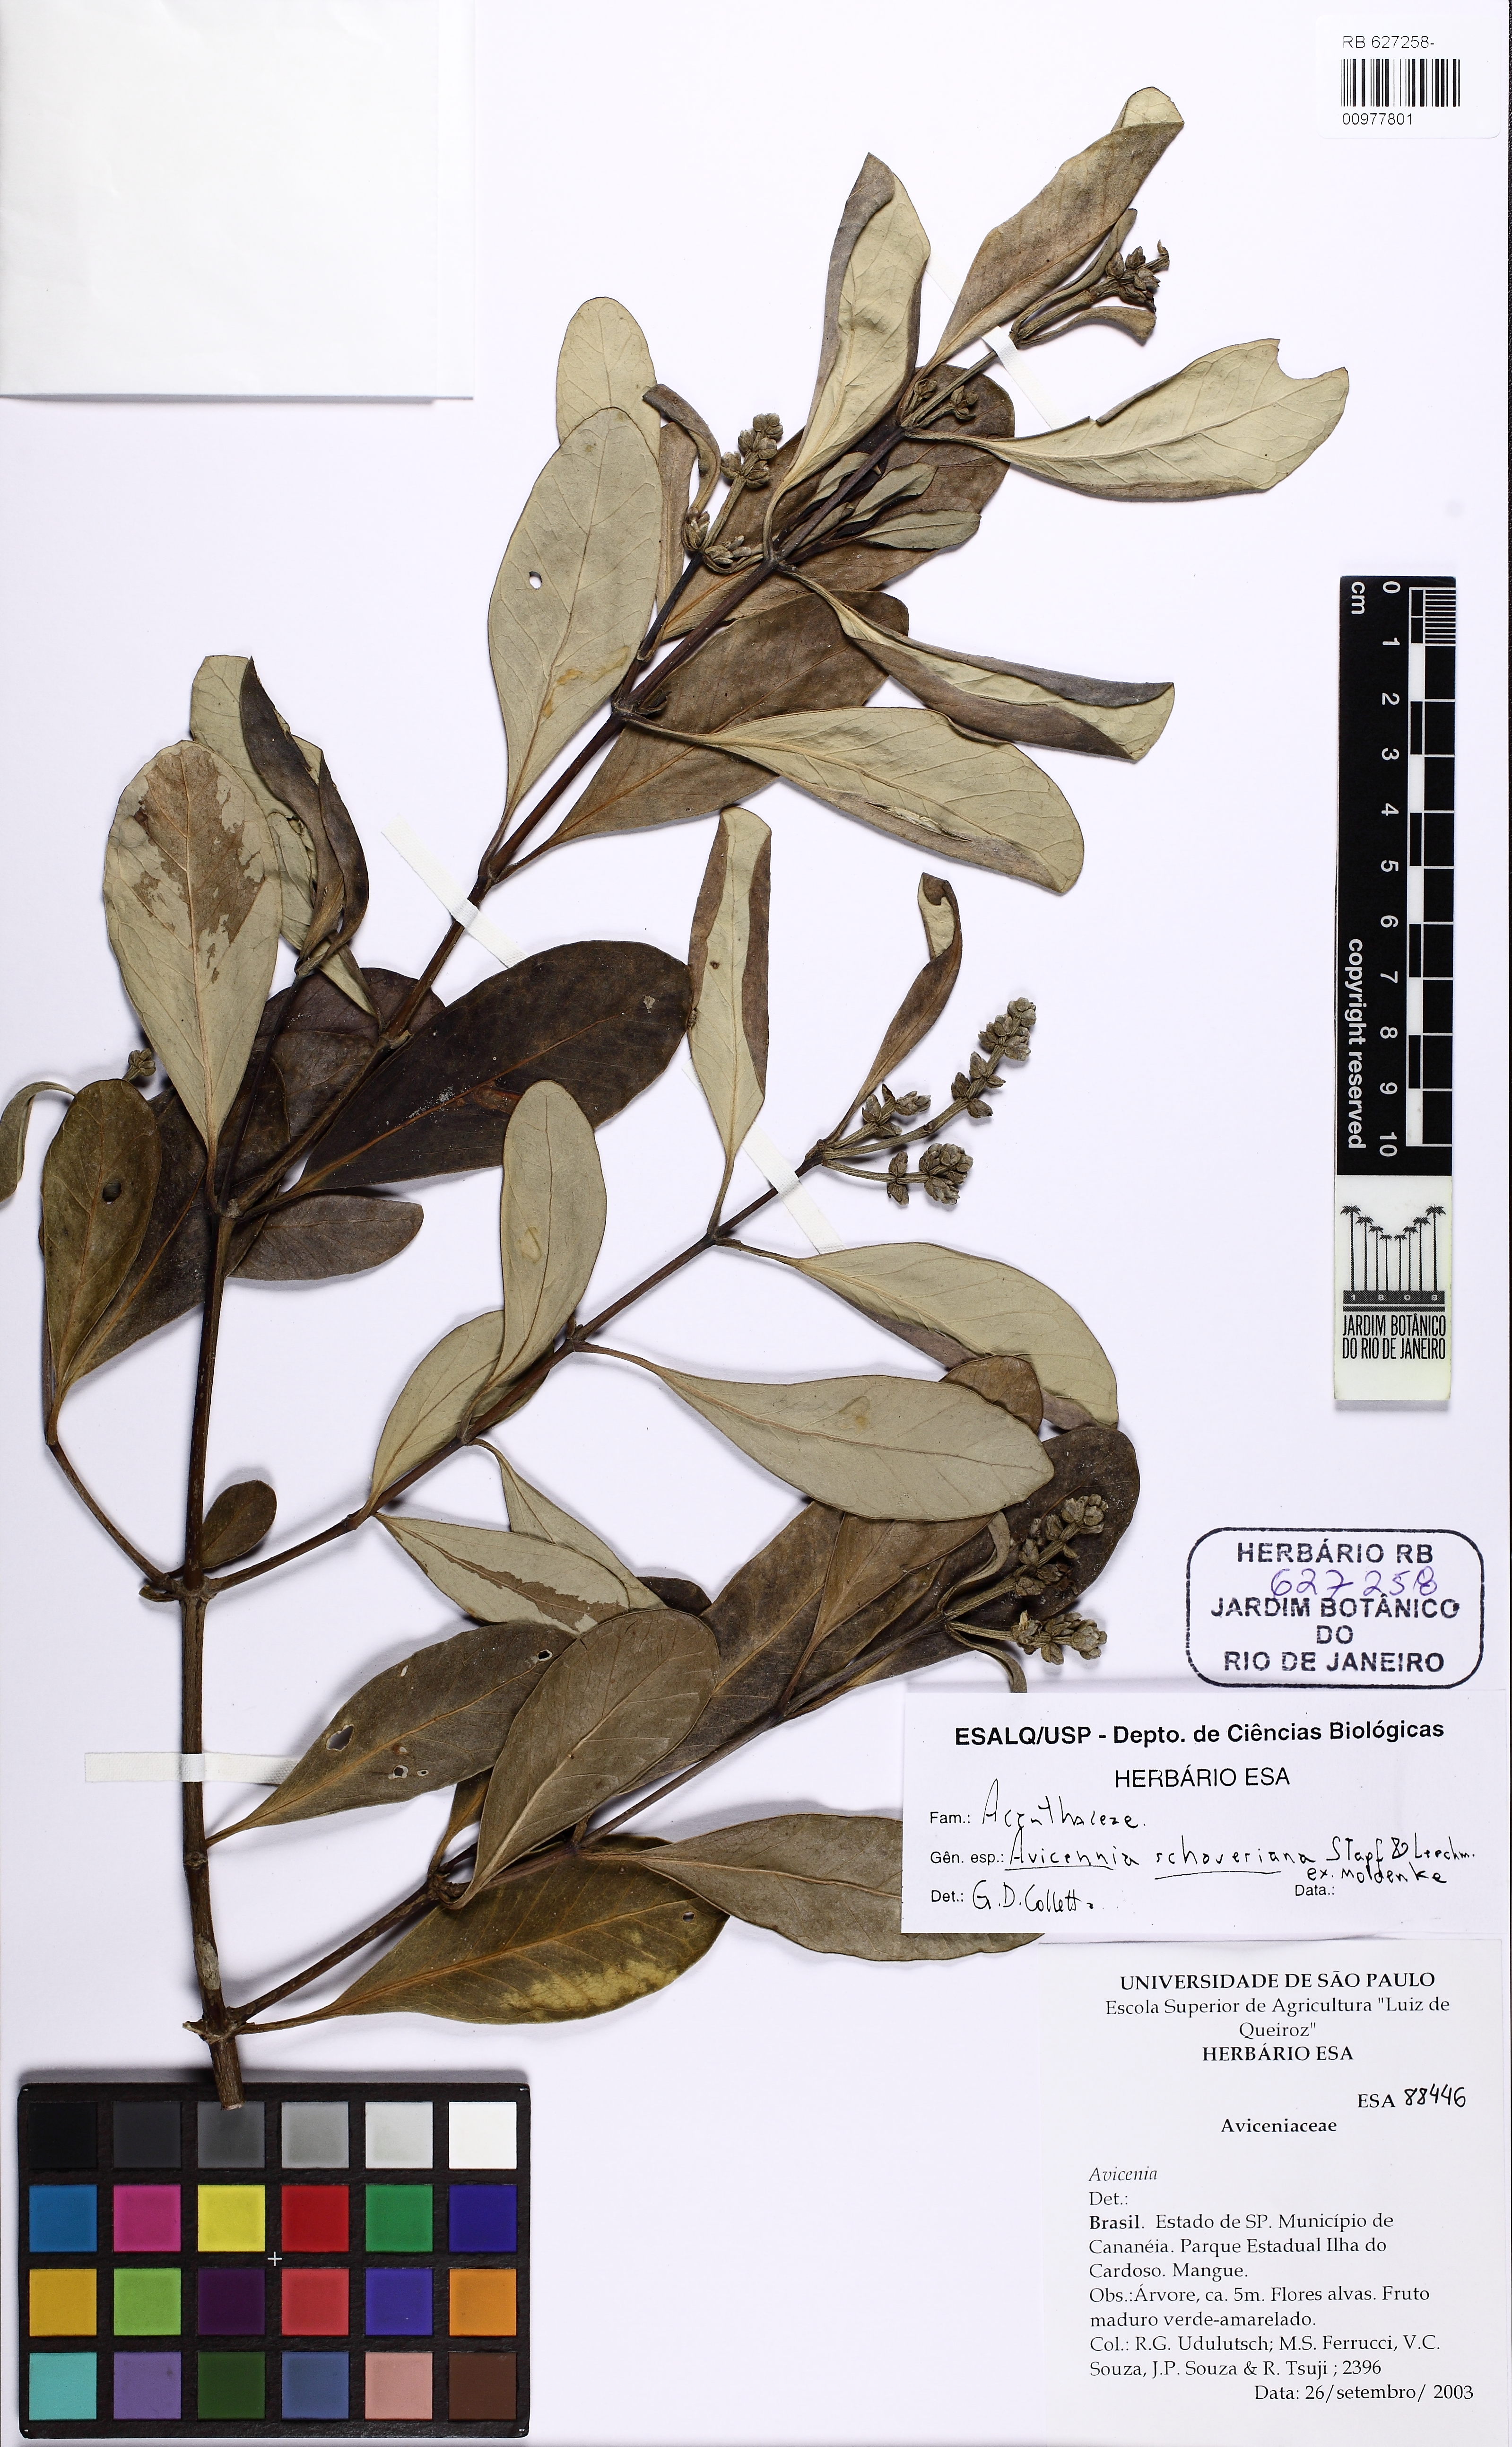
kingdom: Plantae
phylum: Tracheophyta
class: Magnoliopsida
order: Lamiales
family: Acanthaceae
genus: Avicennia
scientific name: Avicennia schaueriana
